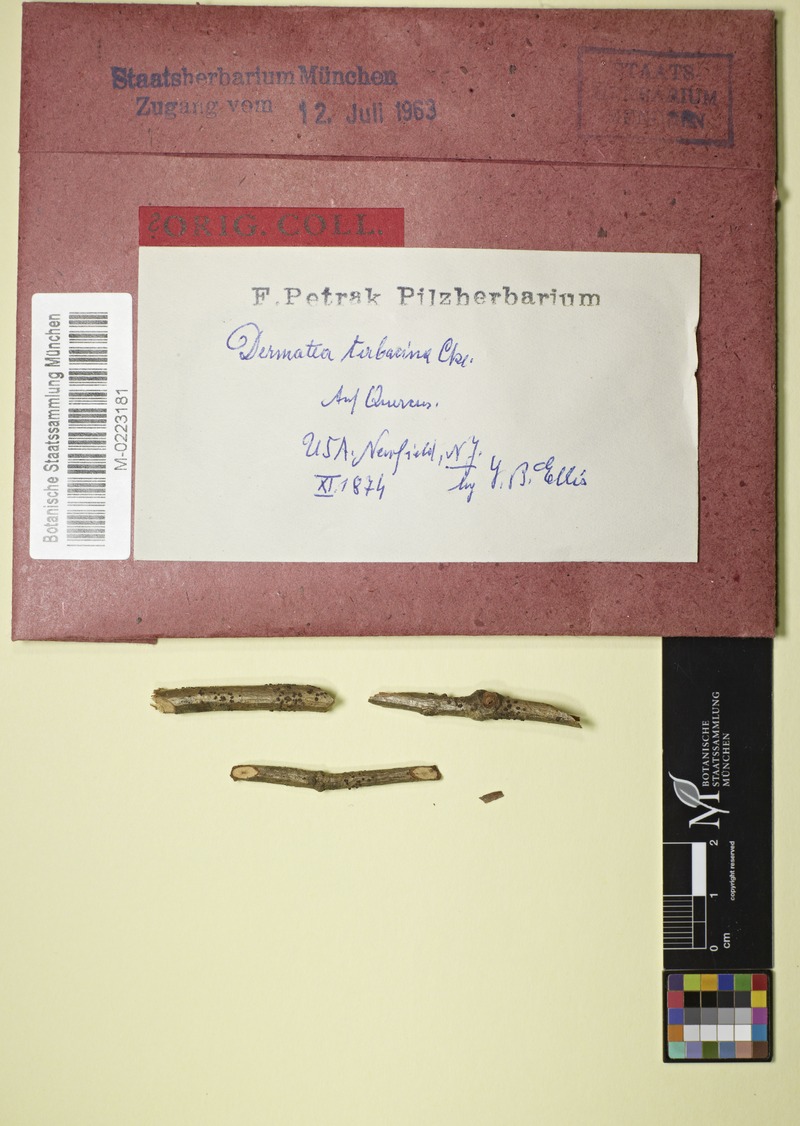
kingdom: Fungi
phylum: Ascomycota
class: Leotiomycetes
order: Helotiales
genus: Dermateopsis
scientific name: Dermateopsis tabacina
